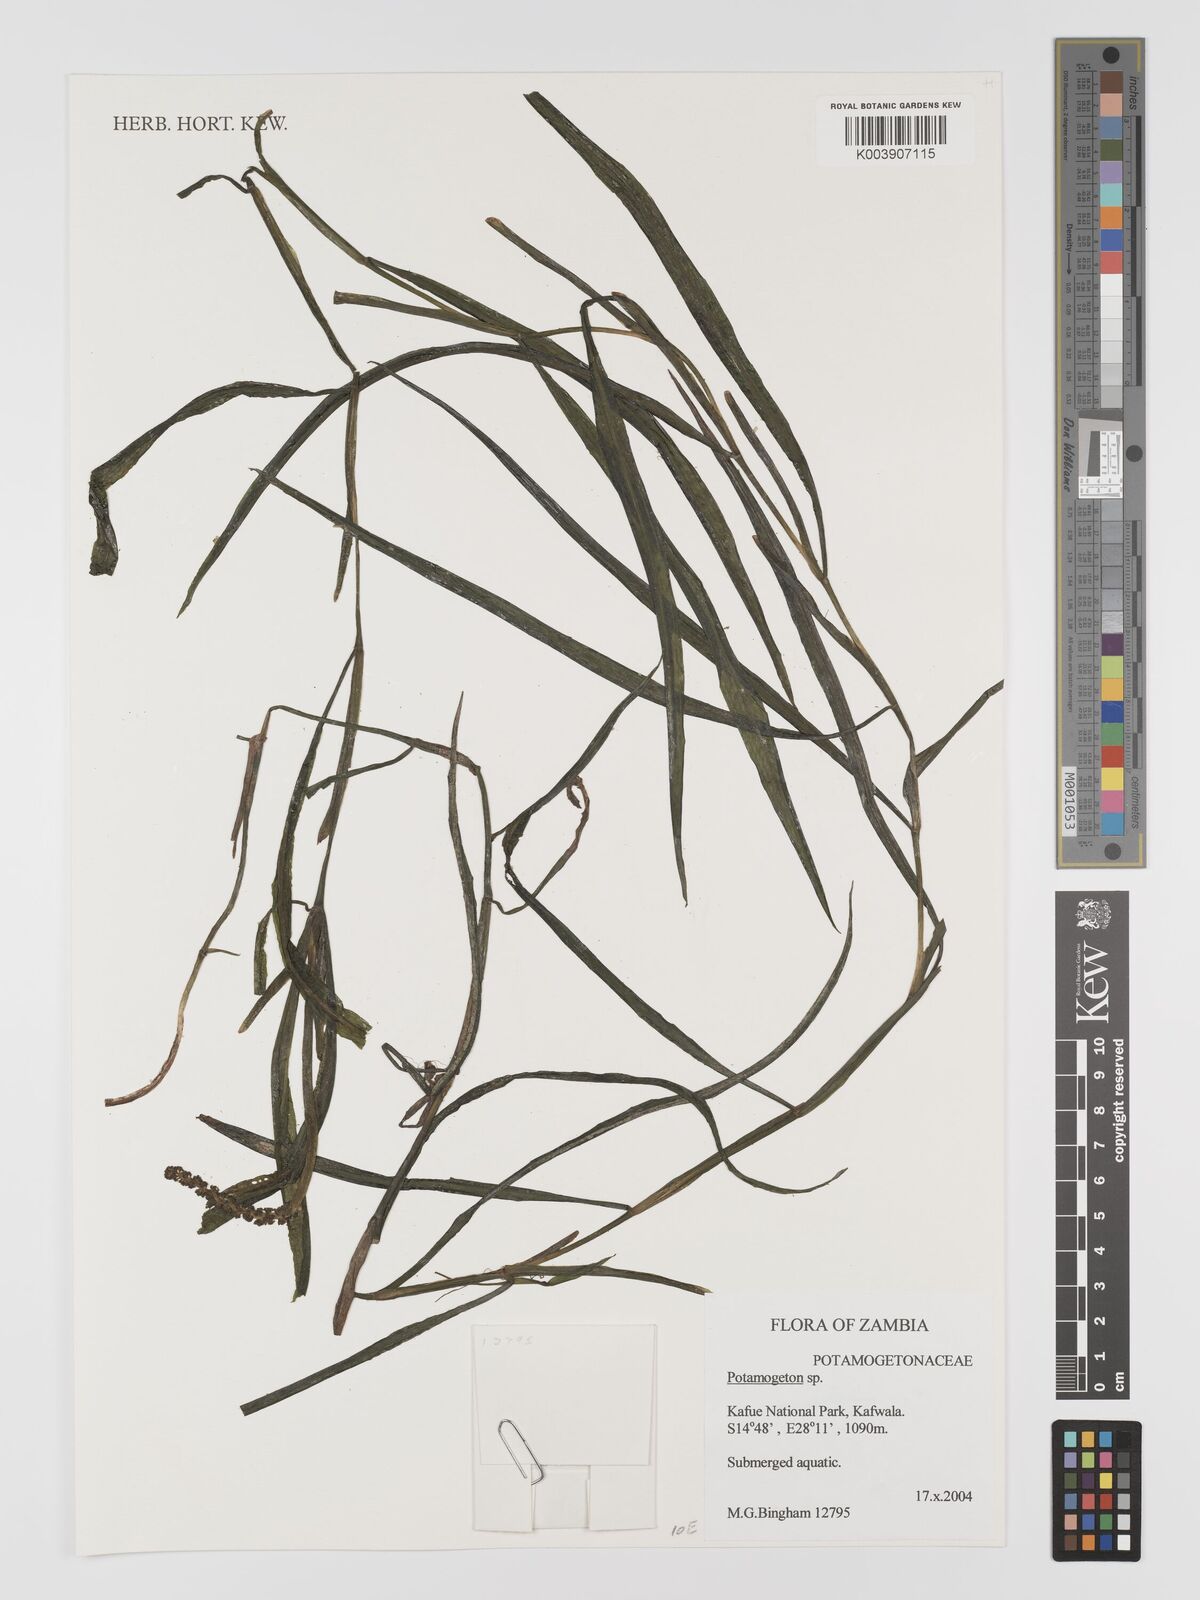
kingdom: Plantae
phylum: Tracheophyta
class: Liliopsida
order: Alismatales
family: Potamogetonaceae
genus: Potamogeton
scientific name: Potamogeton
